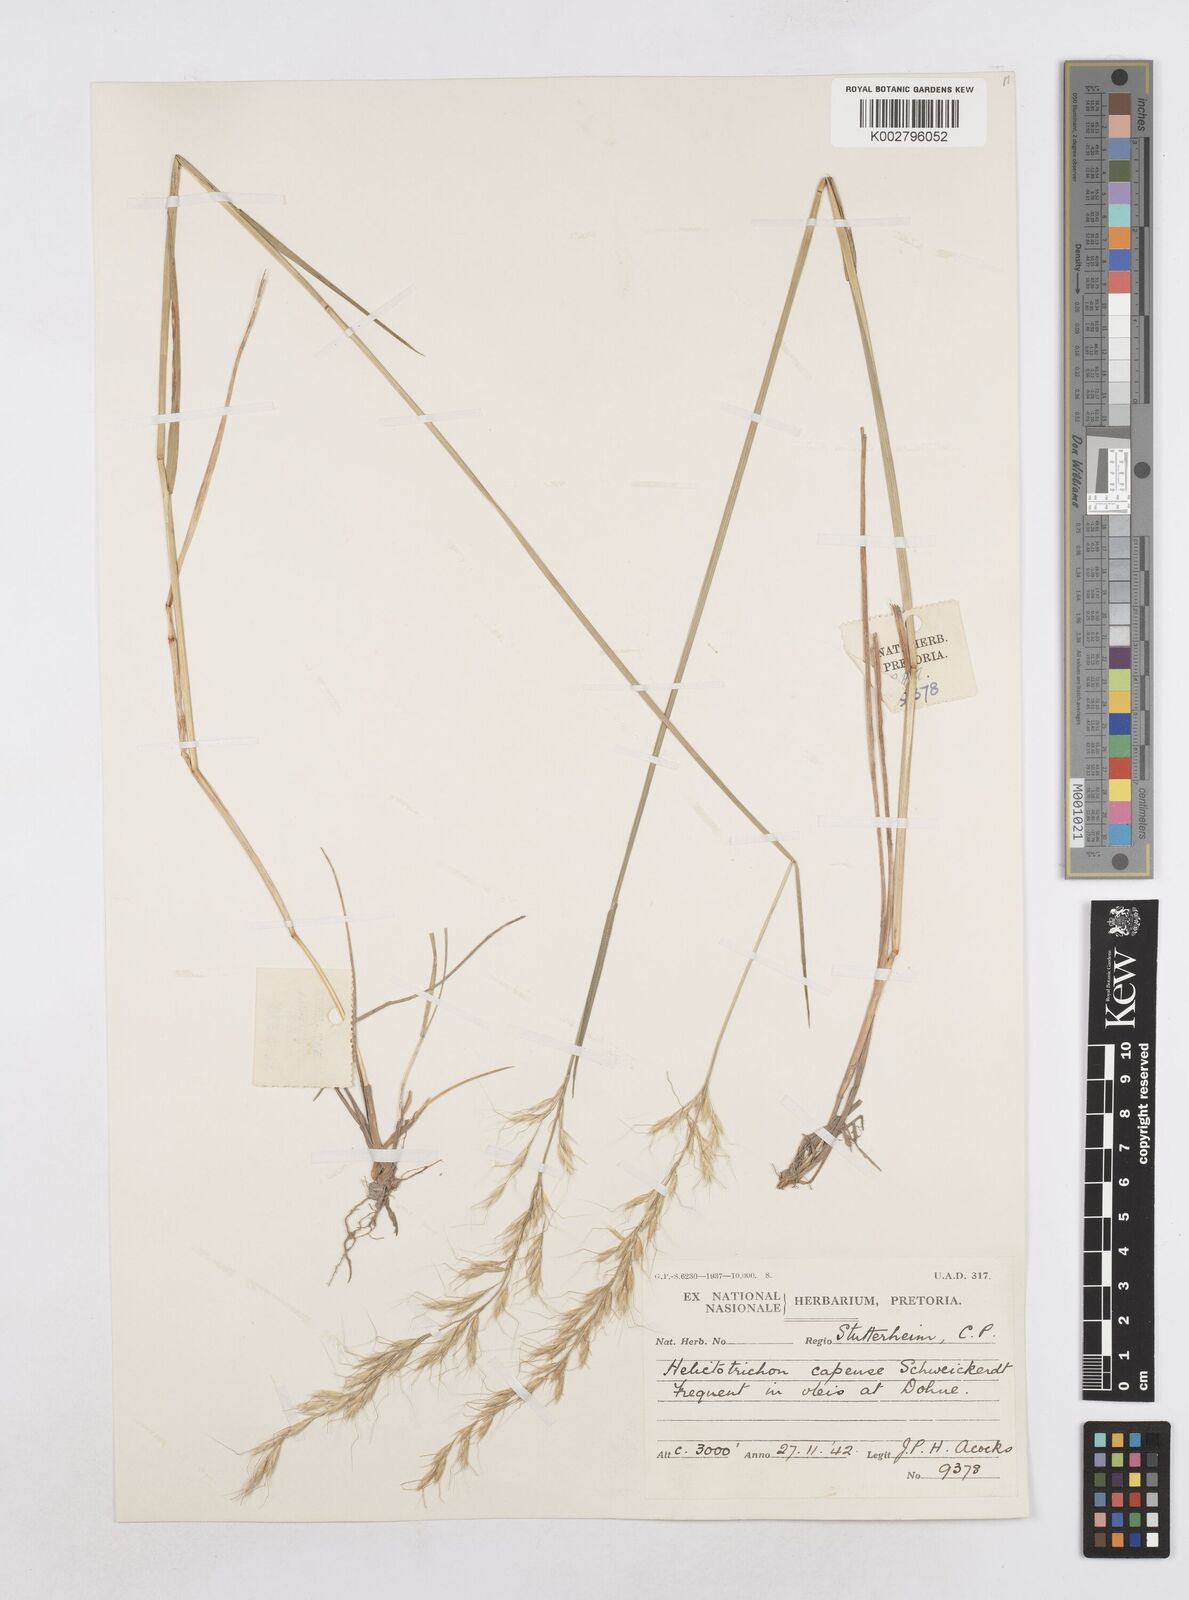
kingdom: Plantae
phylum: Tracheophyta
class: Liliopsida
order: Poales
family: Poaceae
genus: Trisetopsis
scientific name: Trisetopsis capensis
